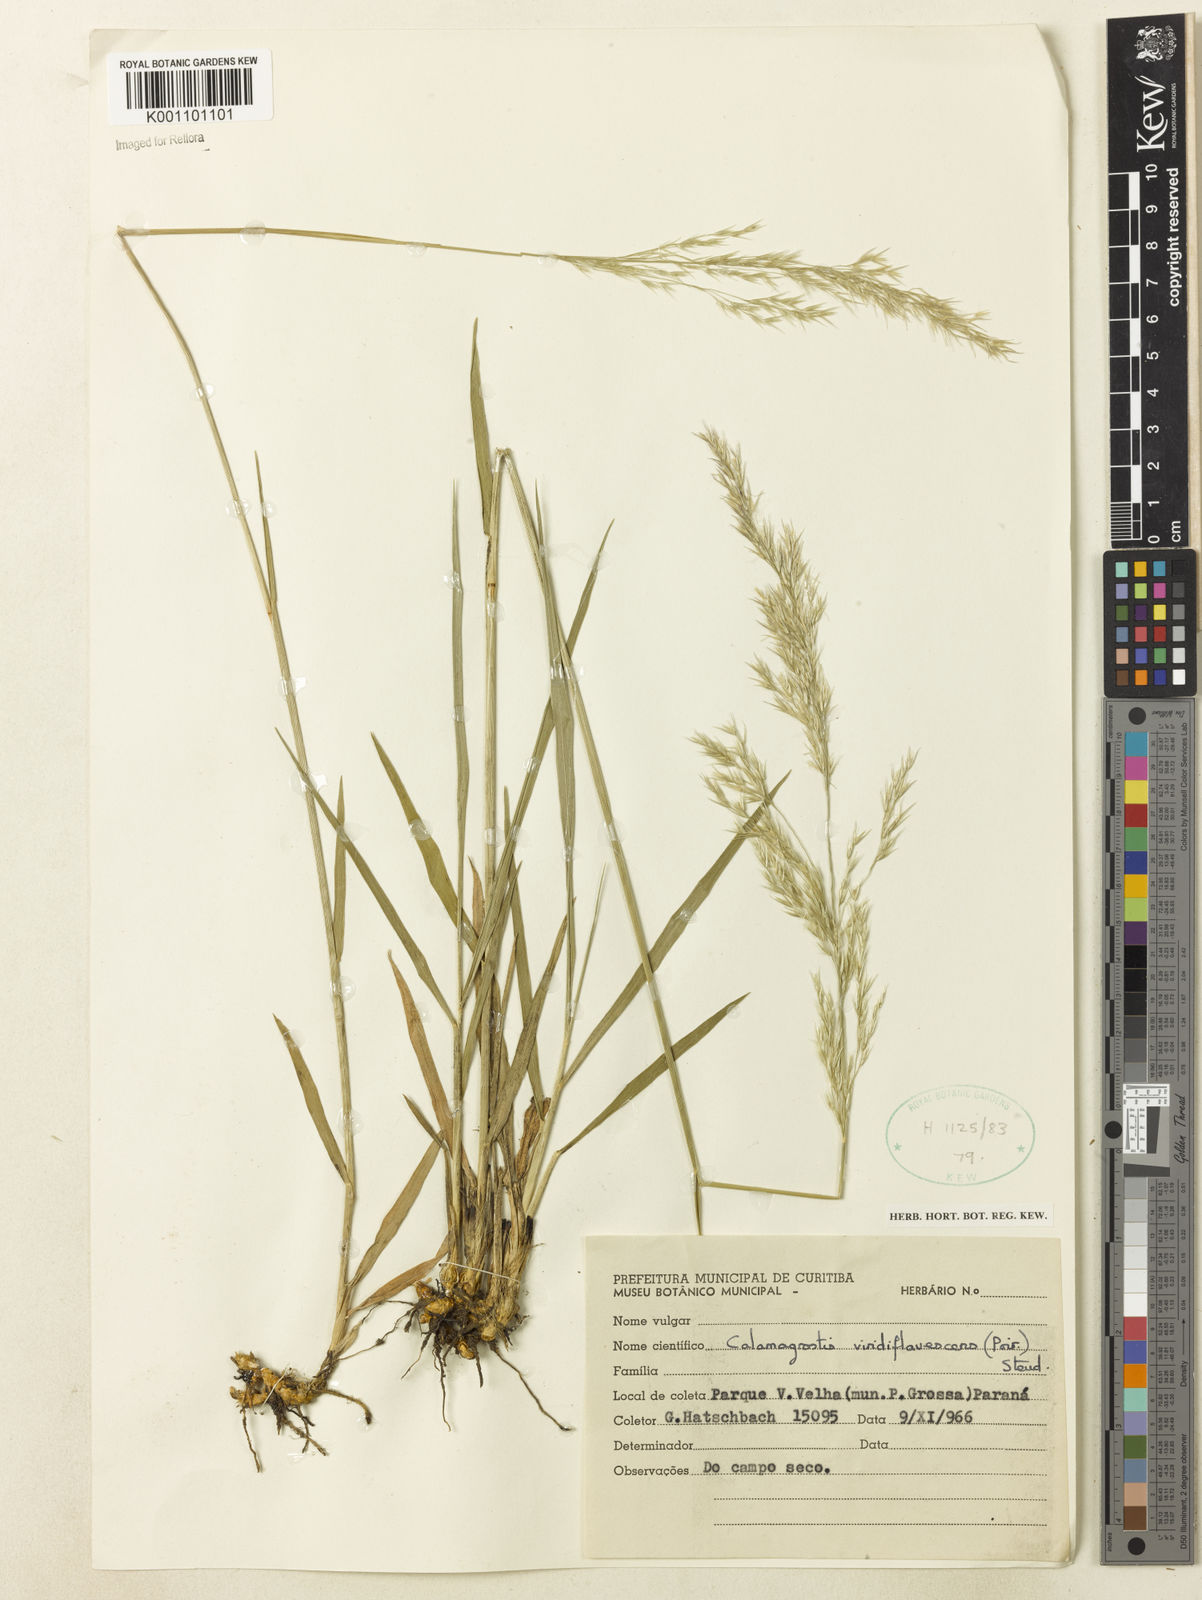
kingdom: Plantae
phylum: Tracheophyta
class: Liliopsida
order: Poales
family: Poaceae
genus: Cinnagrostis
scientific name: Cinnagrostis viridiflavescens
